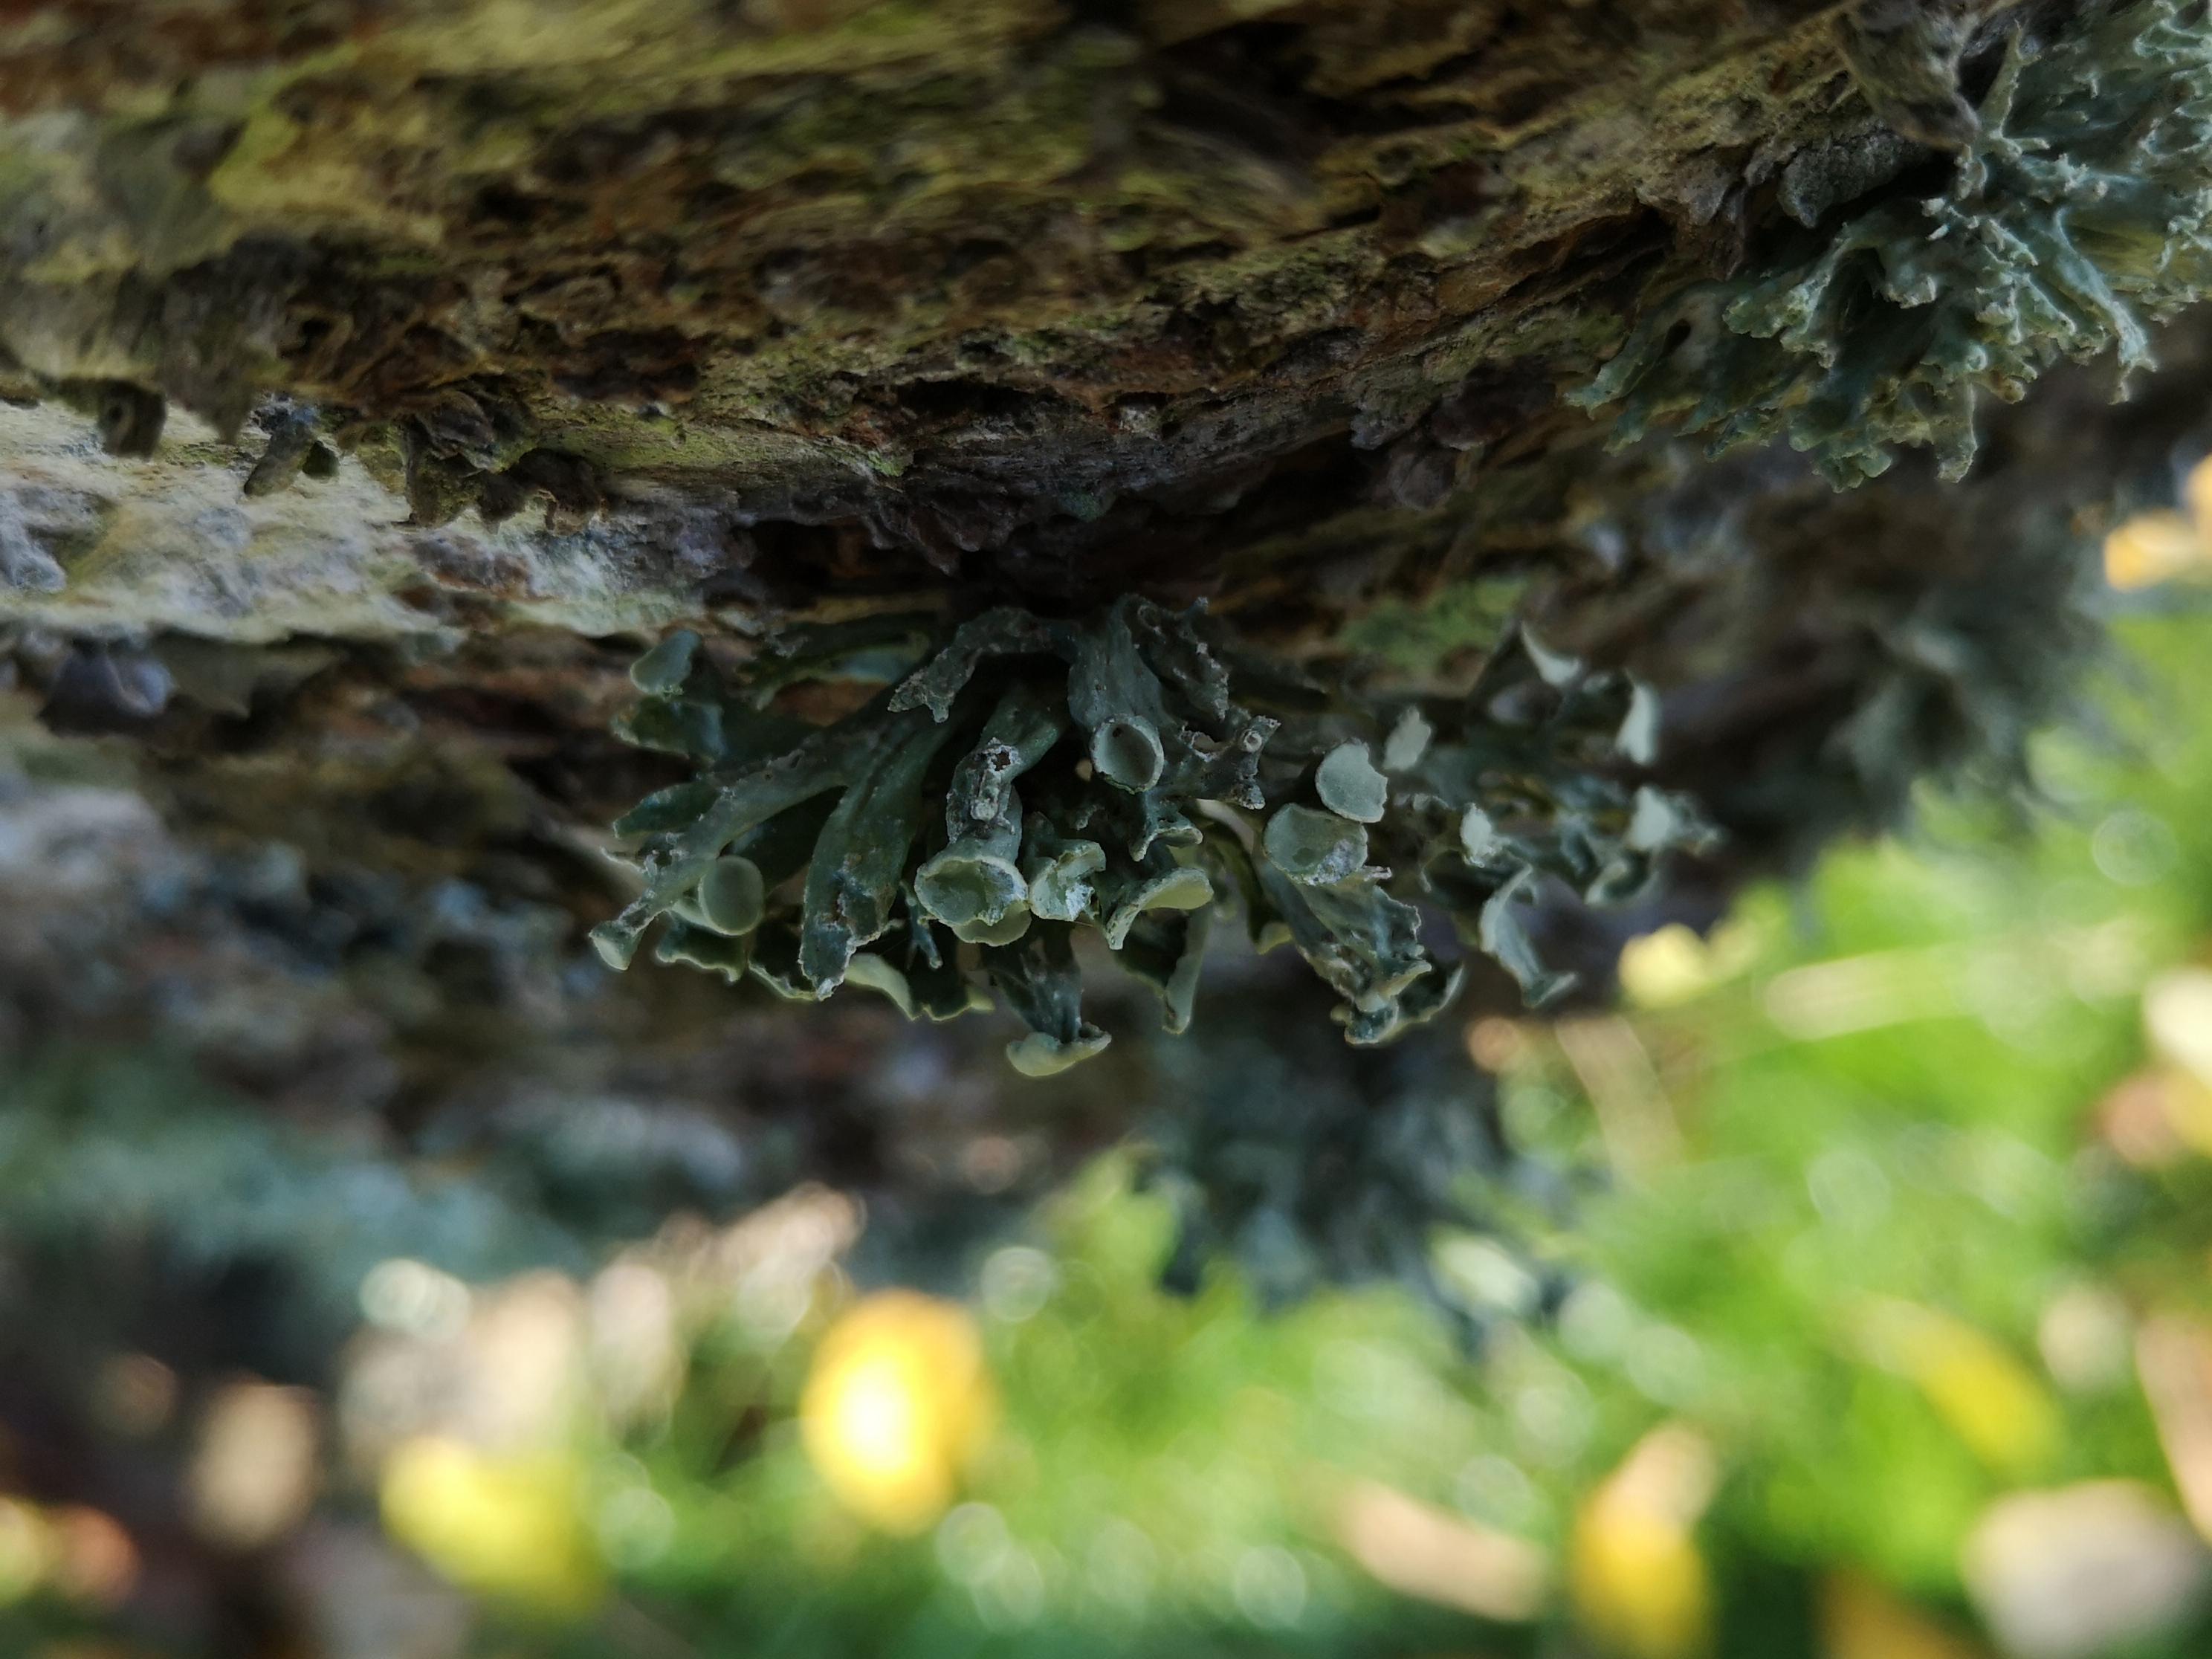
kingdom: Fungi
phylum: Ascomycota
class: Lecanoromycetes
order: Lecanorales
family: Ramalinaceae
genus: Ramalina
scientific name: Ramalina fastigiata
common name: tue-grenlav
